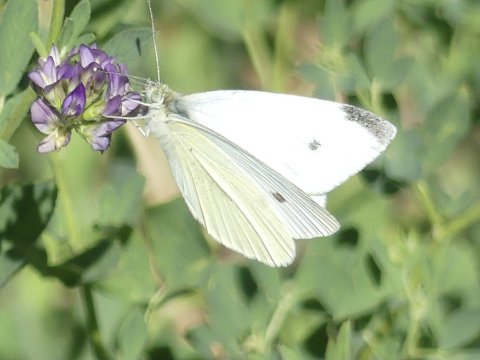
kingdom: Animalia
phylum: Arthropoda
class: Insecta
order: Lepidoptera
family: Pieridae
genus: Pieris
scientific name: Pieris rapae
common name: Cabbage White
